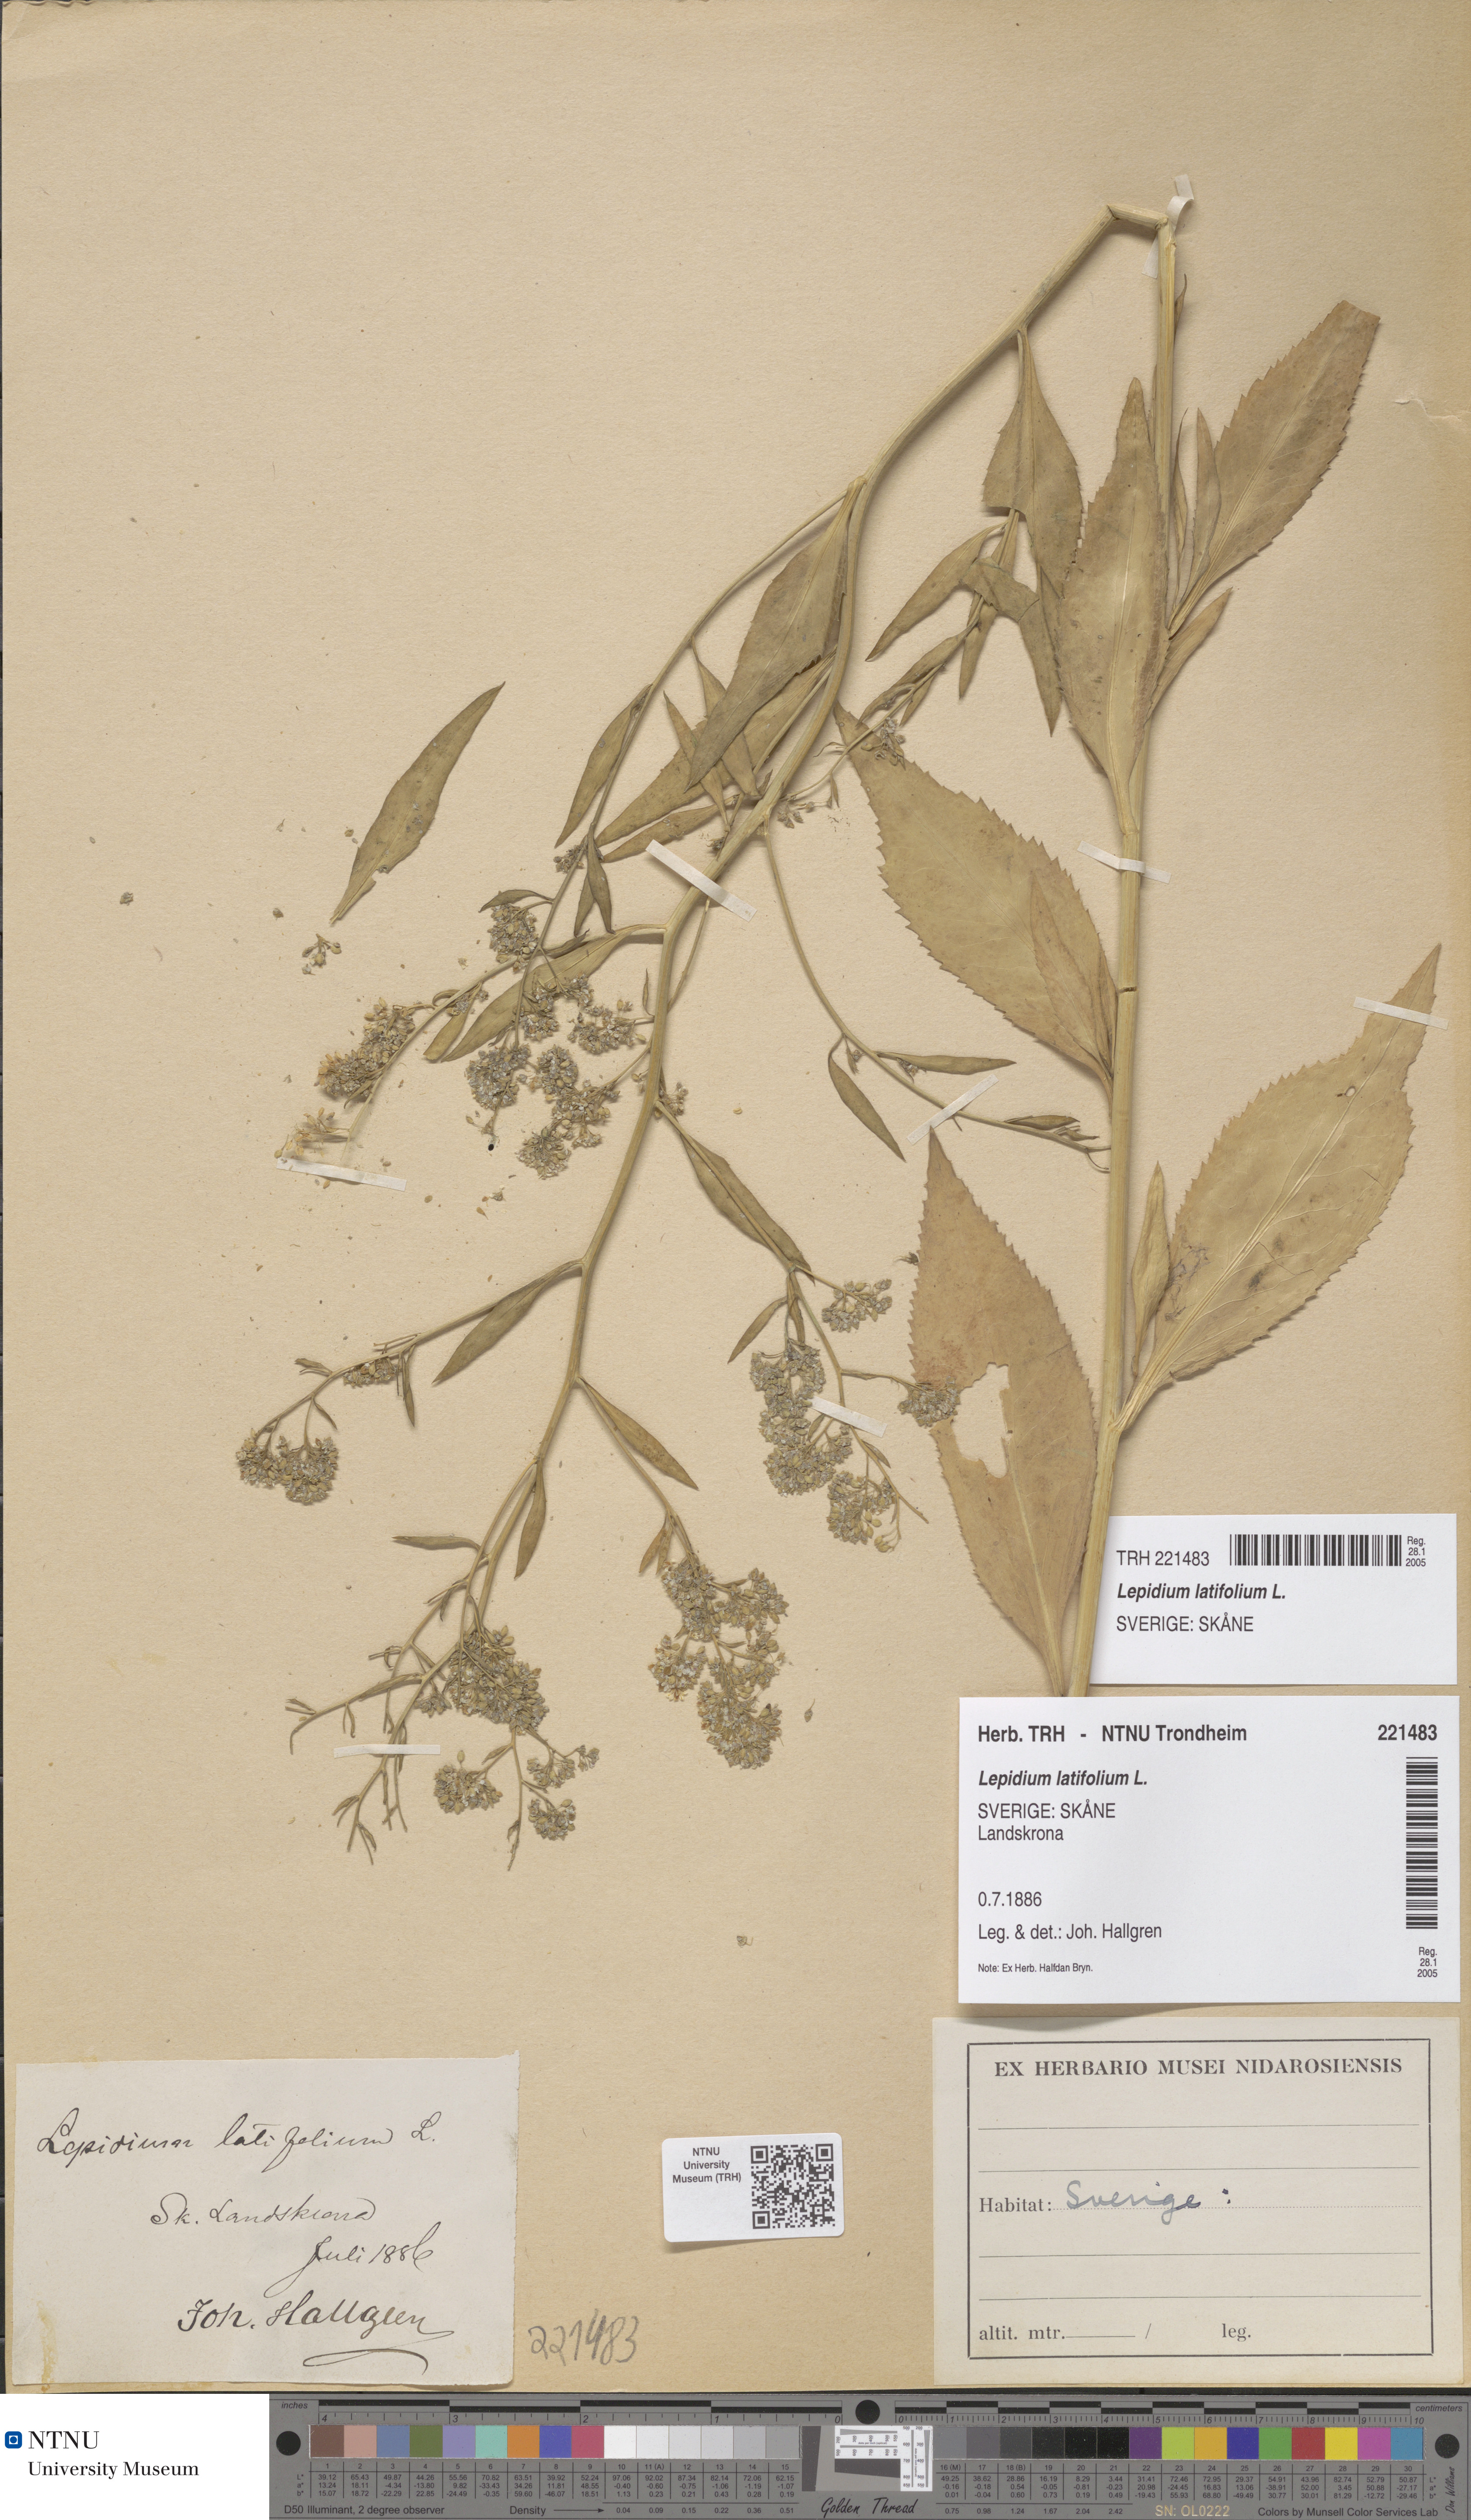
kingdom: Plantae
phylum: Tracheophyta
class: Magnoliopsida
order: Brassicales
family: Brassicaceae
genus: Lepidium
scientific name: Lepidium latifolium
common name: Dittander
